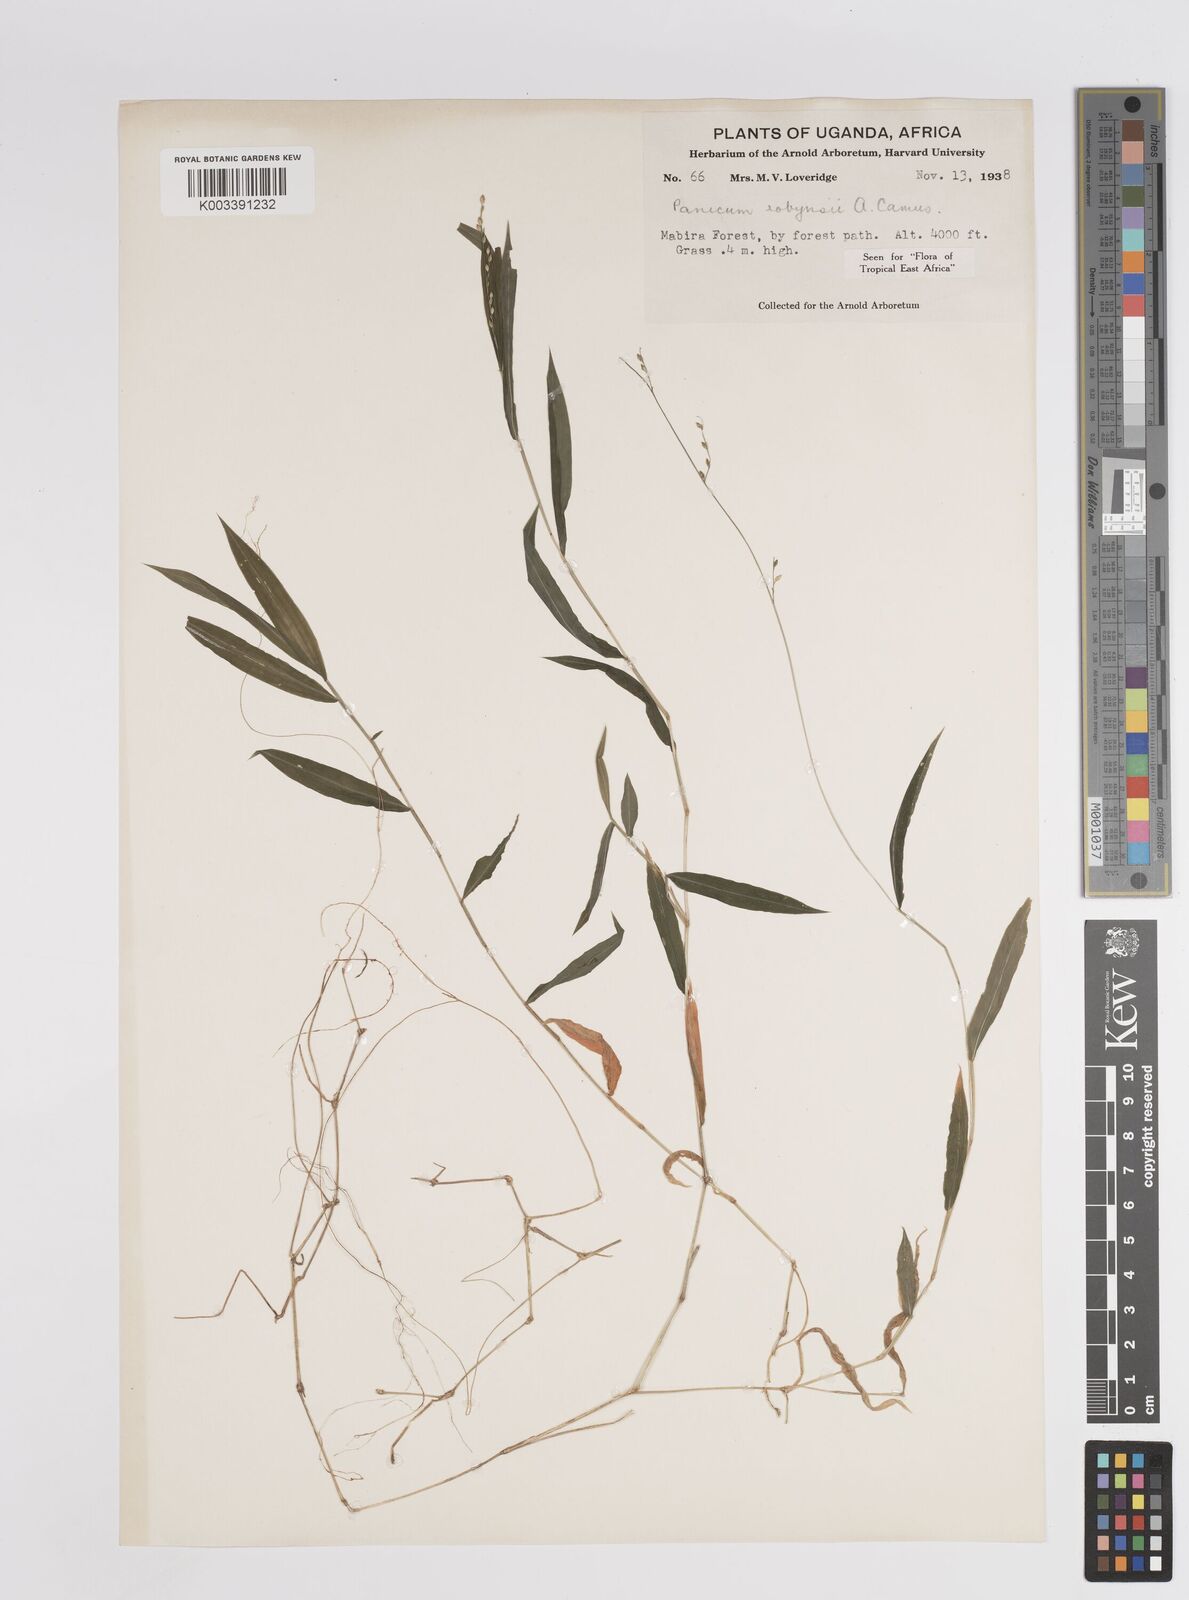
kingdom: Plantae
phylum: Tracheophyta
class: Liliopsida
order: Poales
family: Poaceae
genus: Panicum
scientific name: Panicum robynsii
